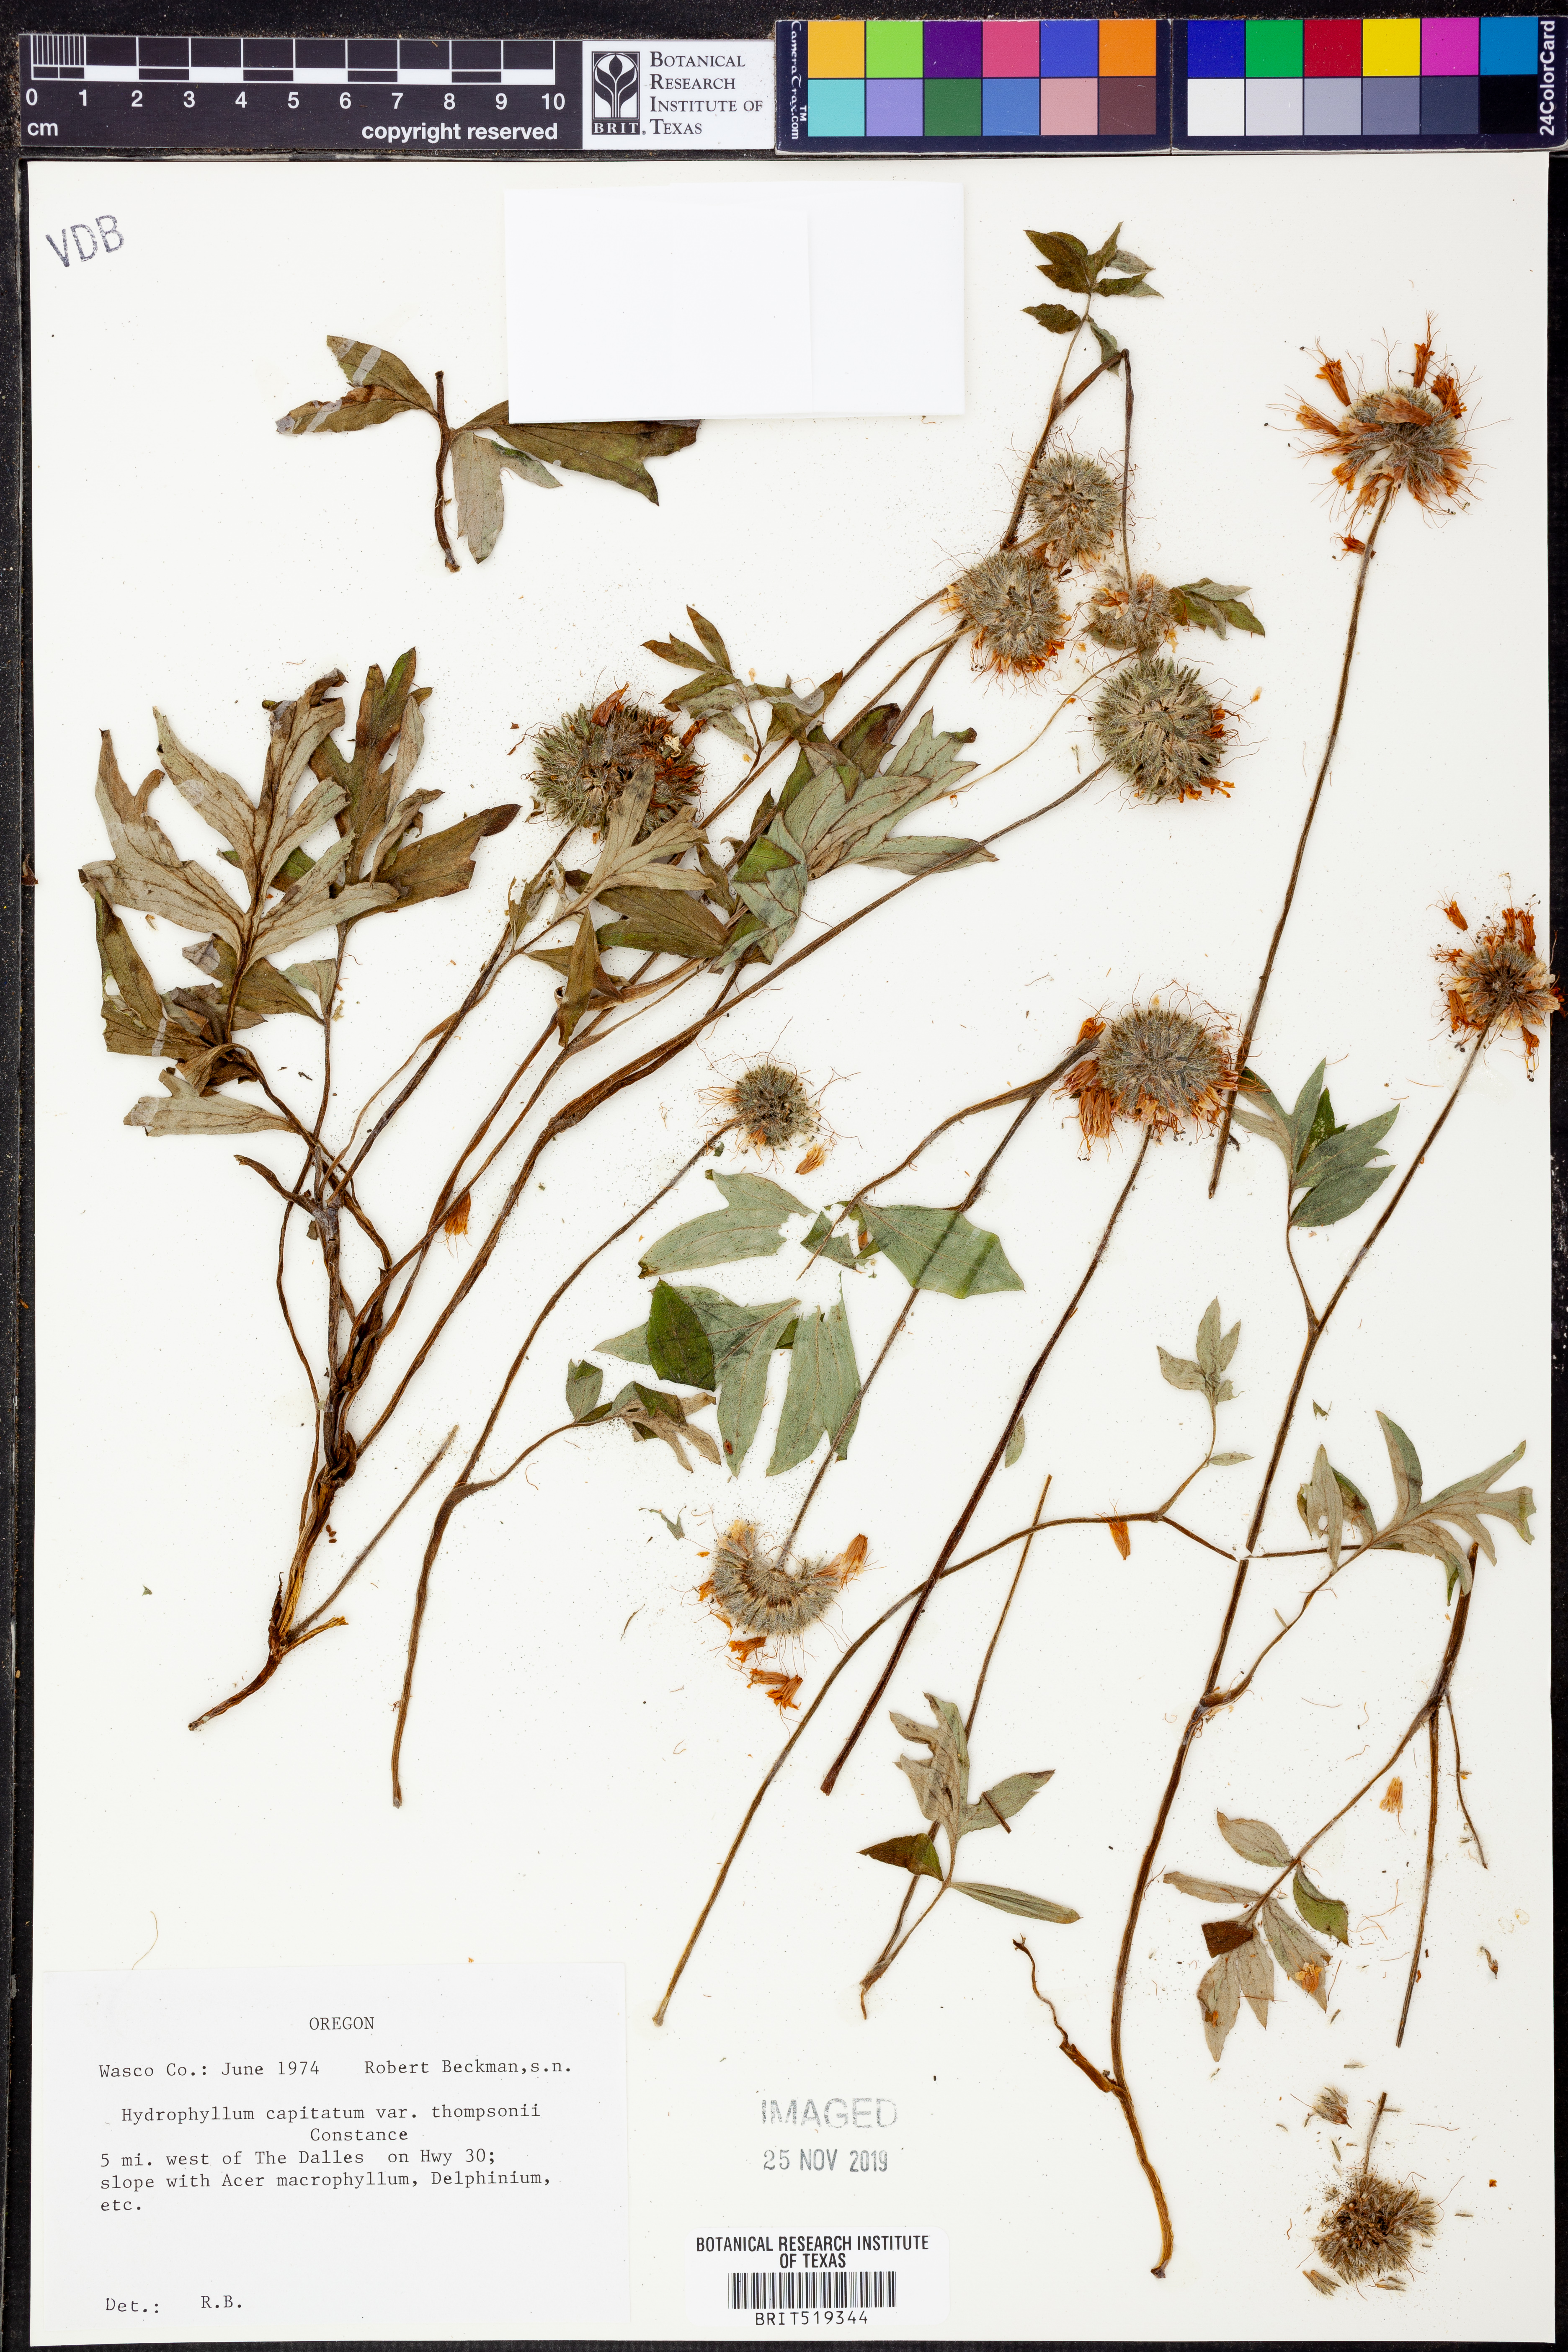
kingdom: Plantae
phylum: Tracheophyta
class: Magnoliopsida
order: Boraginales
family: Hydrophyllaceae
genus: Hydrophyllum
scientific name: Hydrophyllum capitatum
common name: Woollen-breeches
